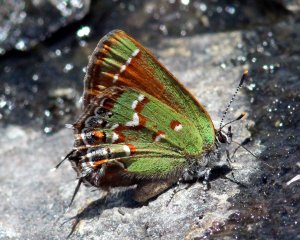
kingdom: Animalia
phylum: Arthropoda
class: Insecta
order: Lepidoptera
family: Lycaenidae
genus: Mitoura
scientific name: Mitoura gryneus
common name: Juniper Hairstreak
